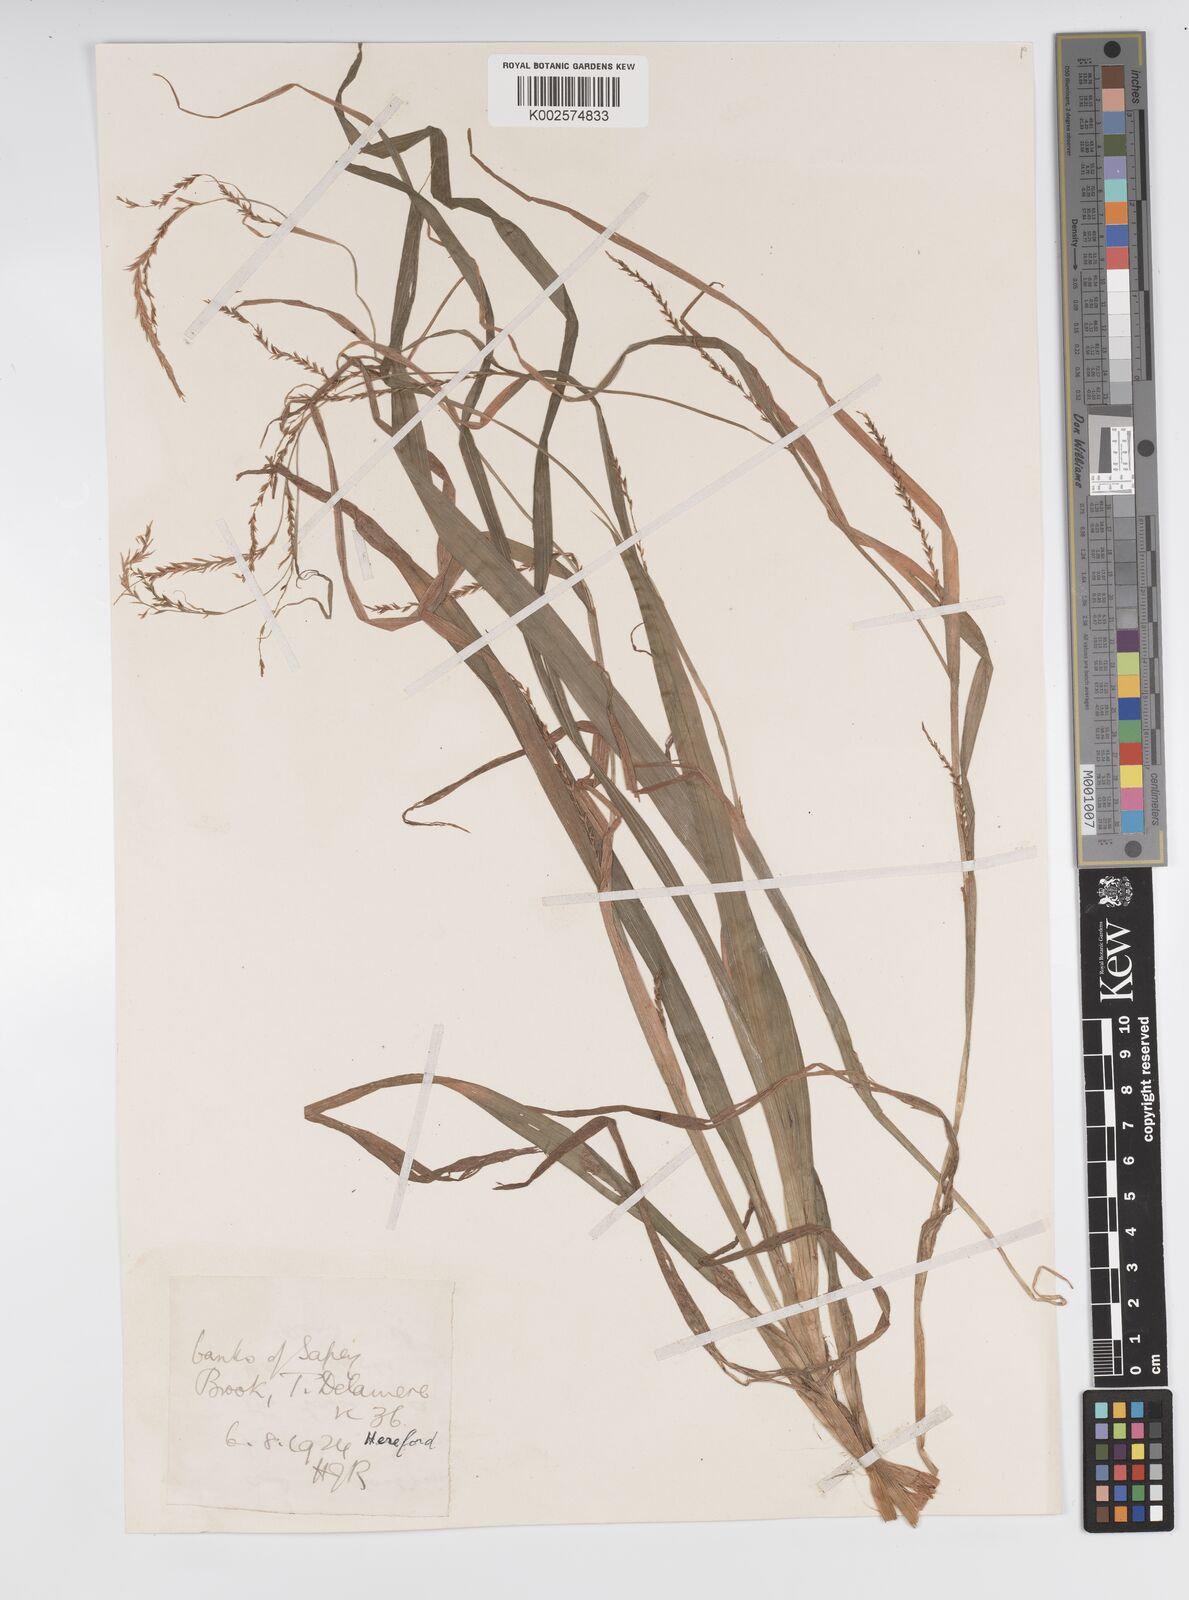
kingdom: Plantae
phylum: Tracheophyta
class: Liliopsida
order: Poales
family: Cyperaceae
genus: Carex
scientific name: Carex strigosa
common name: Thin-spiked wood-sedge
